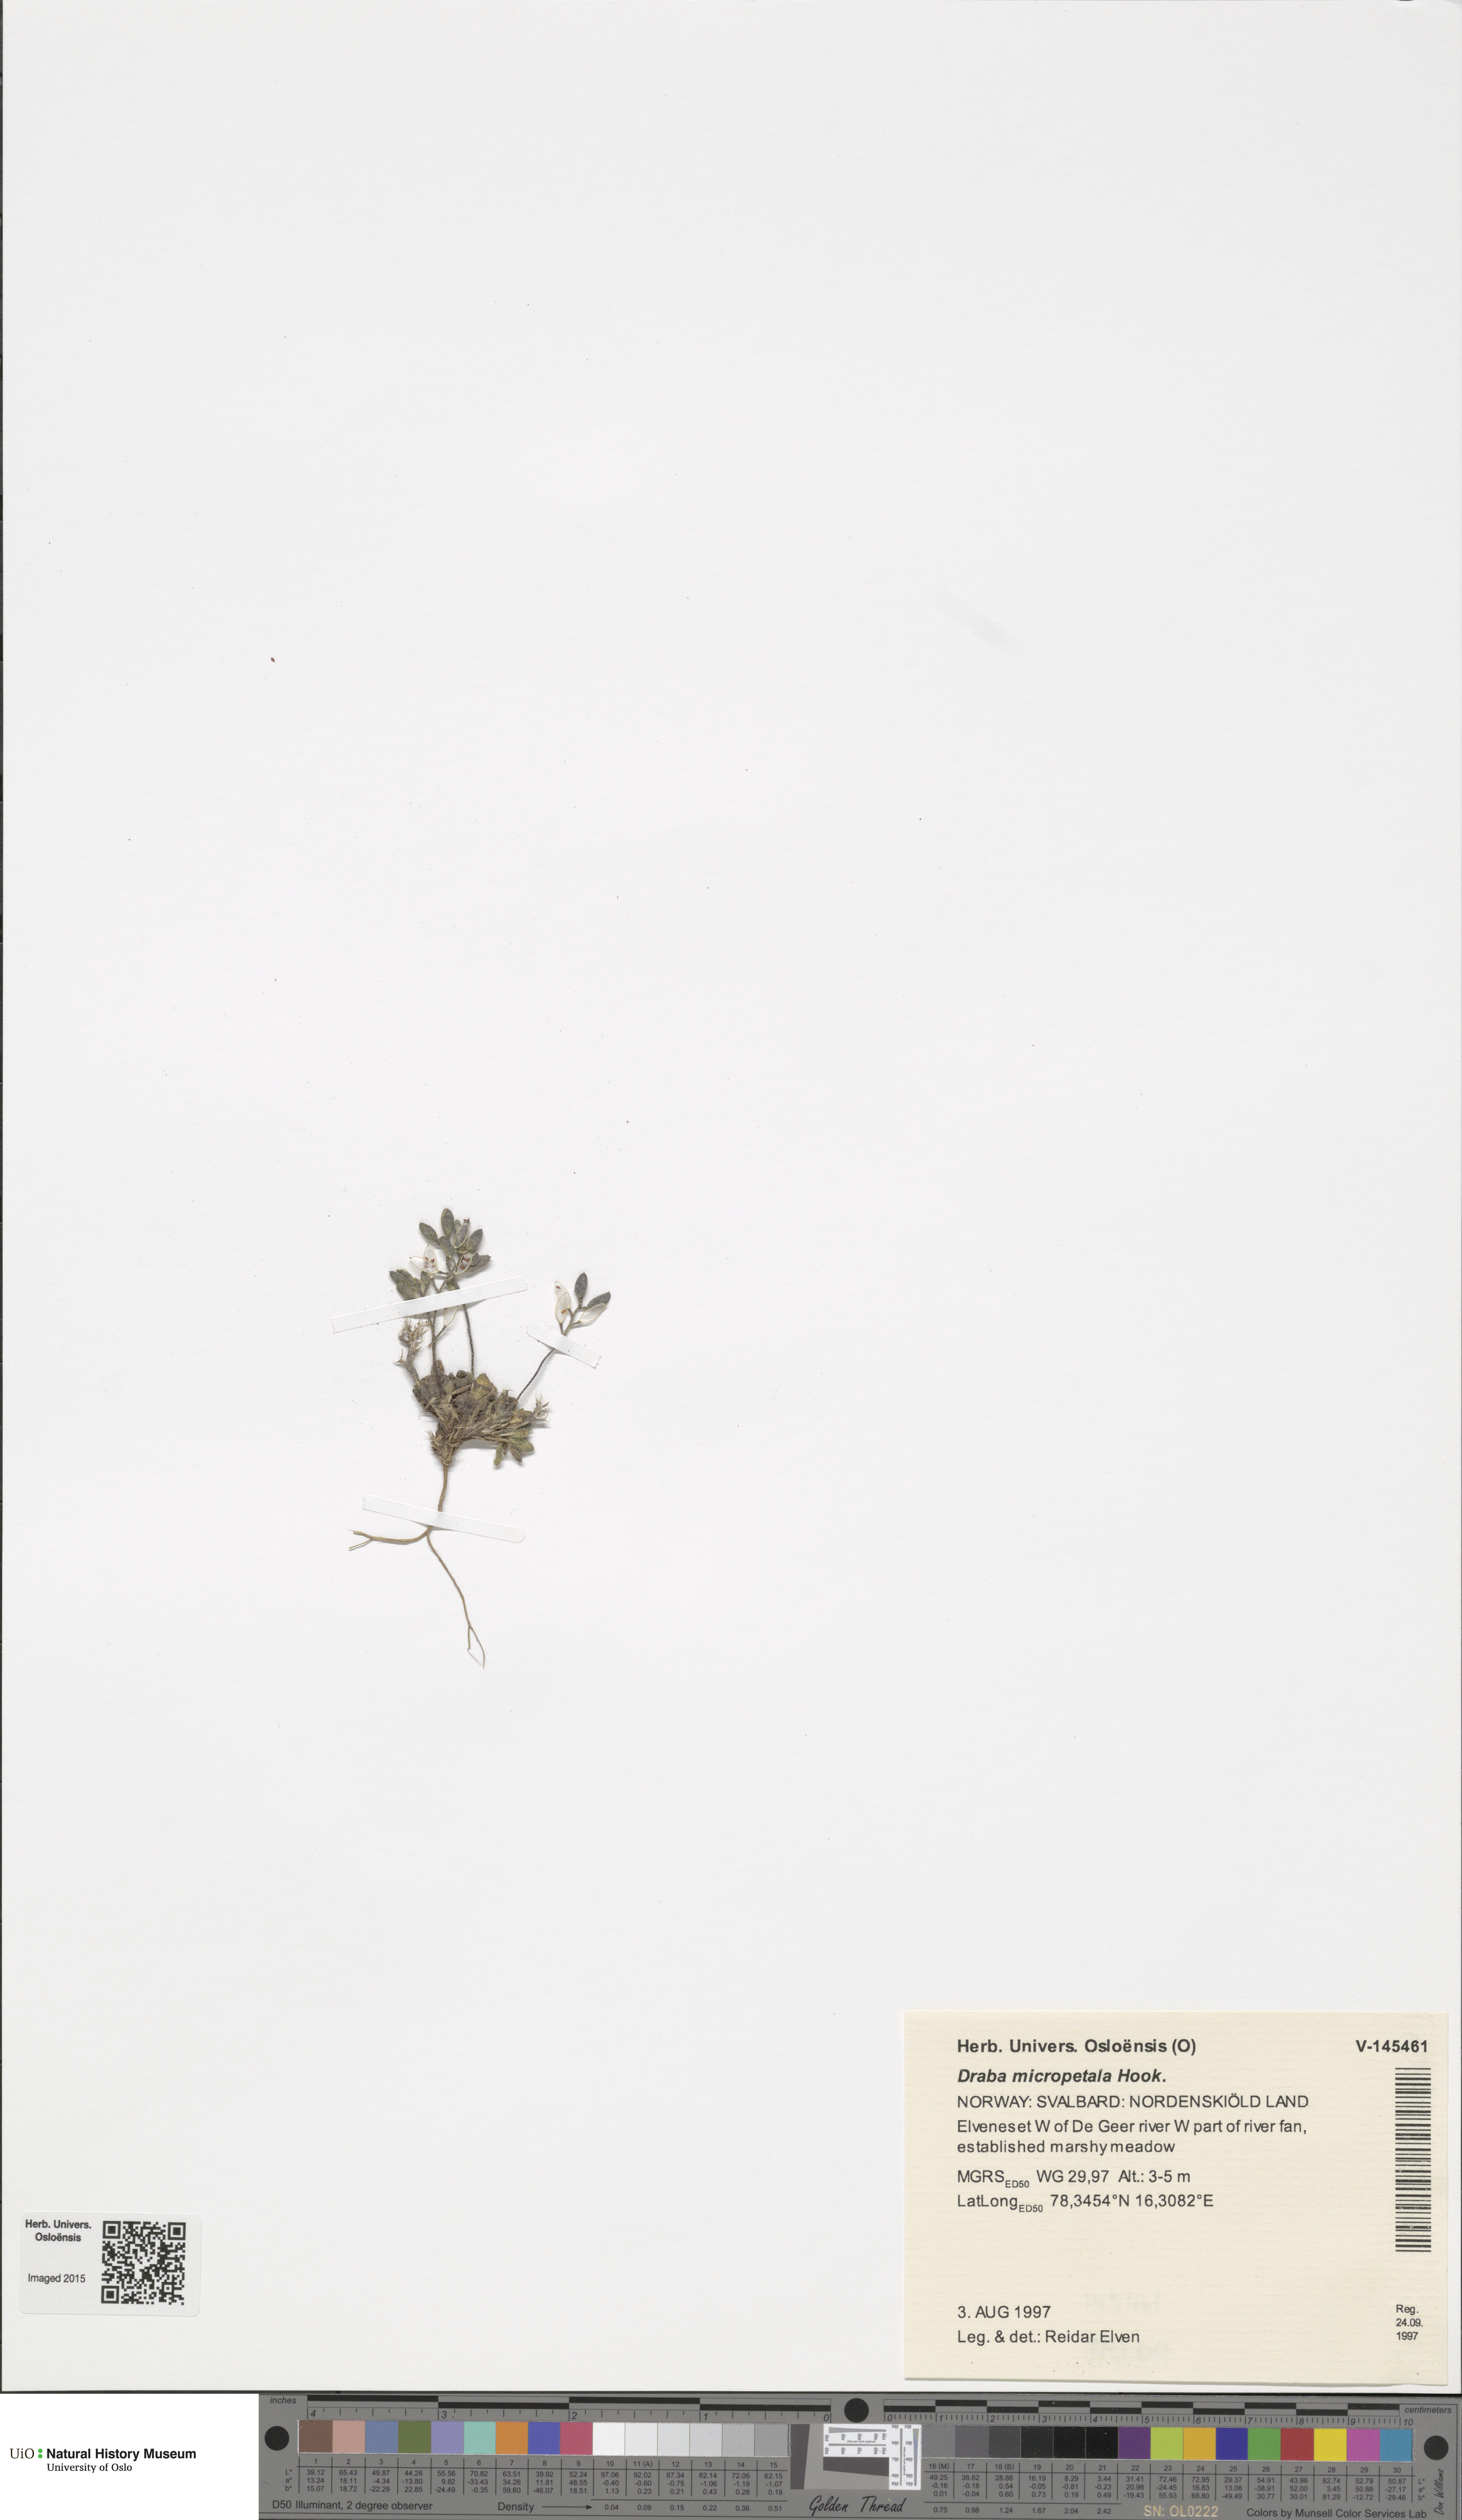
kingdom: Plantae
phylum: Tracheophyta
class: Magnoliopsida
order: Brassicales
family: Brassicaceae
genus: Draba
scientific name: Draba micropetala
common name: Small-flowered draba
